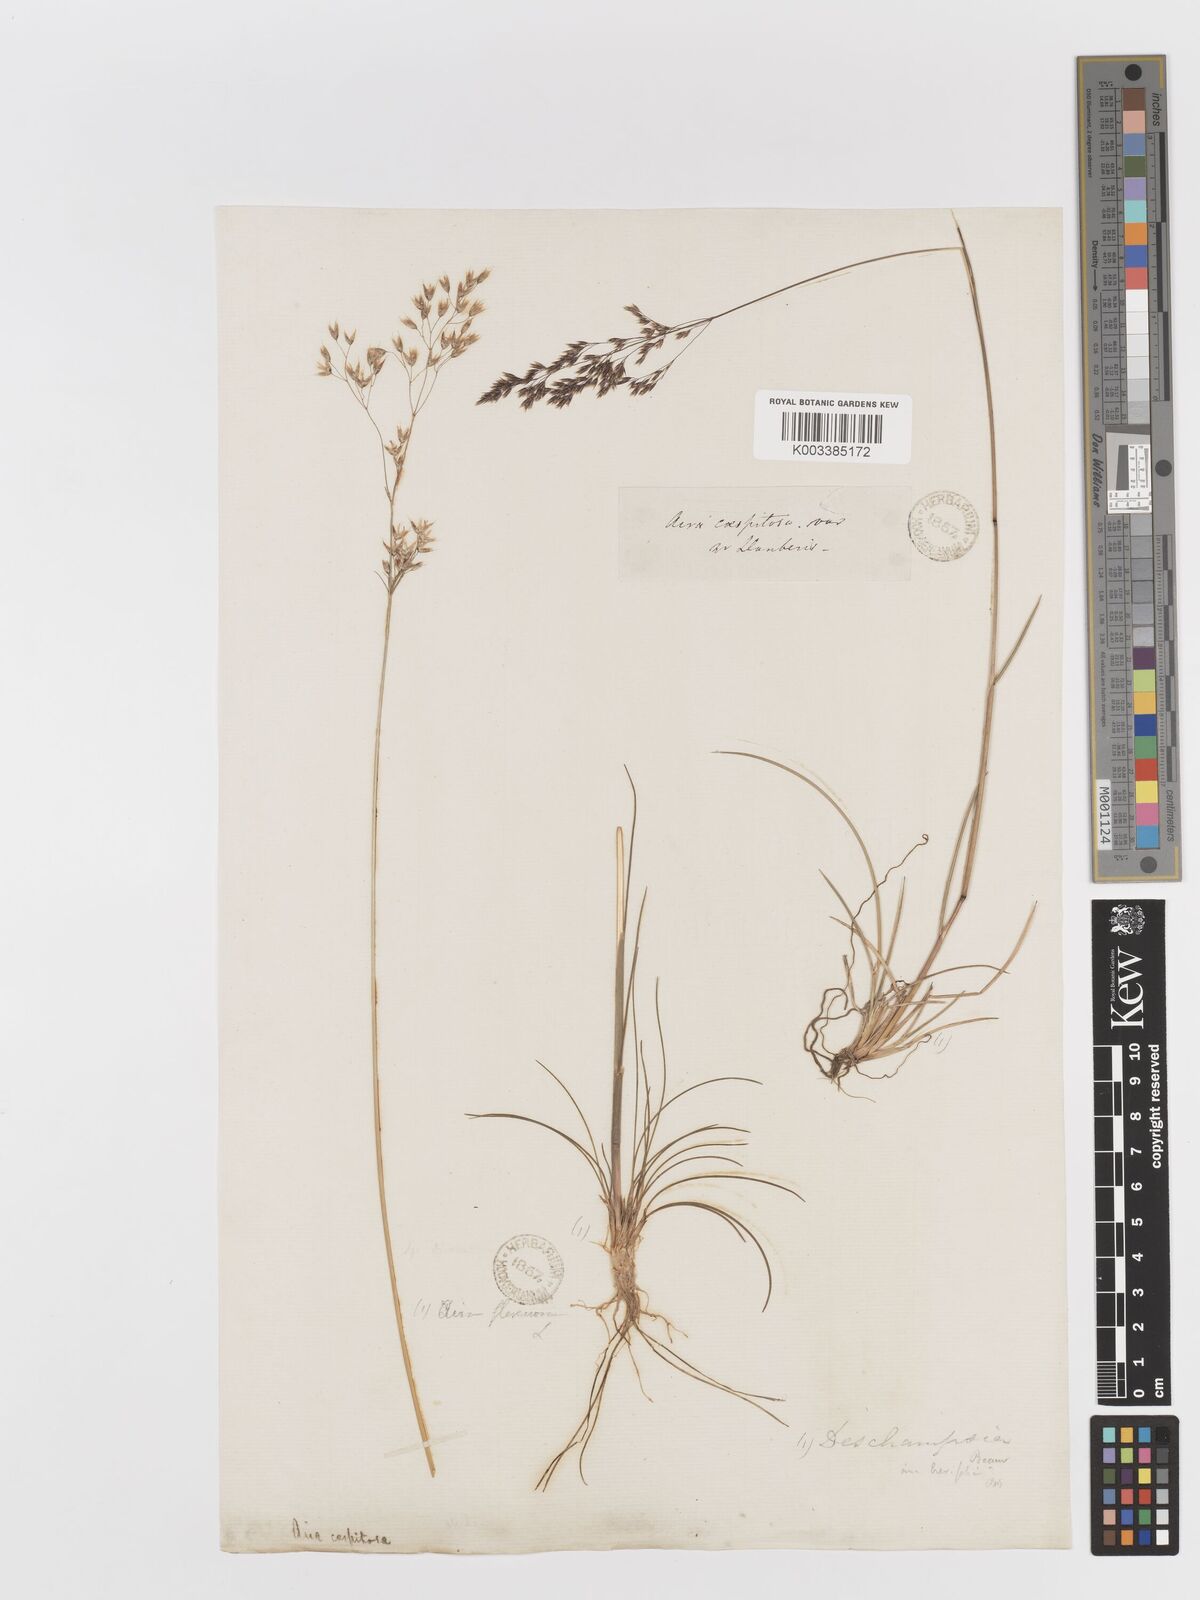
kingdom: Plantae
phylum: Tracheophyta
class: Liliopsida
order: Poales
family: Poaceae
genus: Deschampsia
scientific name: Deschampsia cespitosa
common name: Tufted hair-grass
